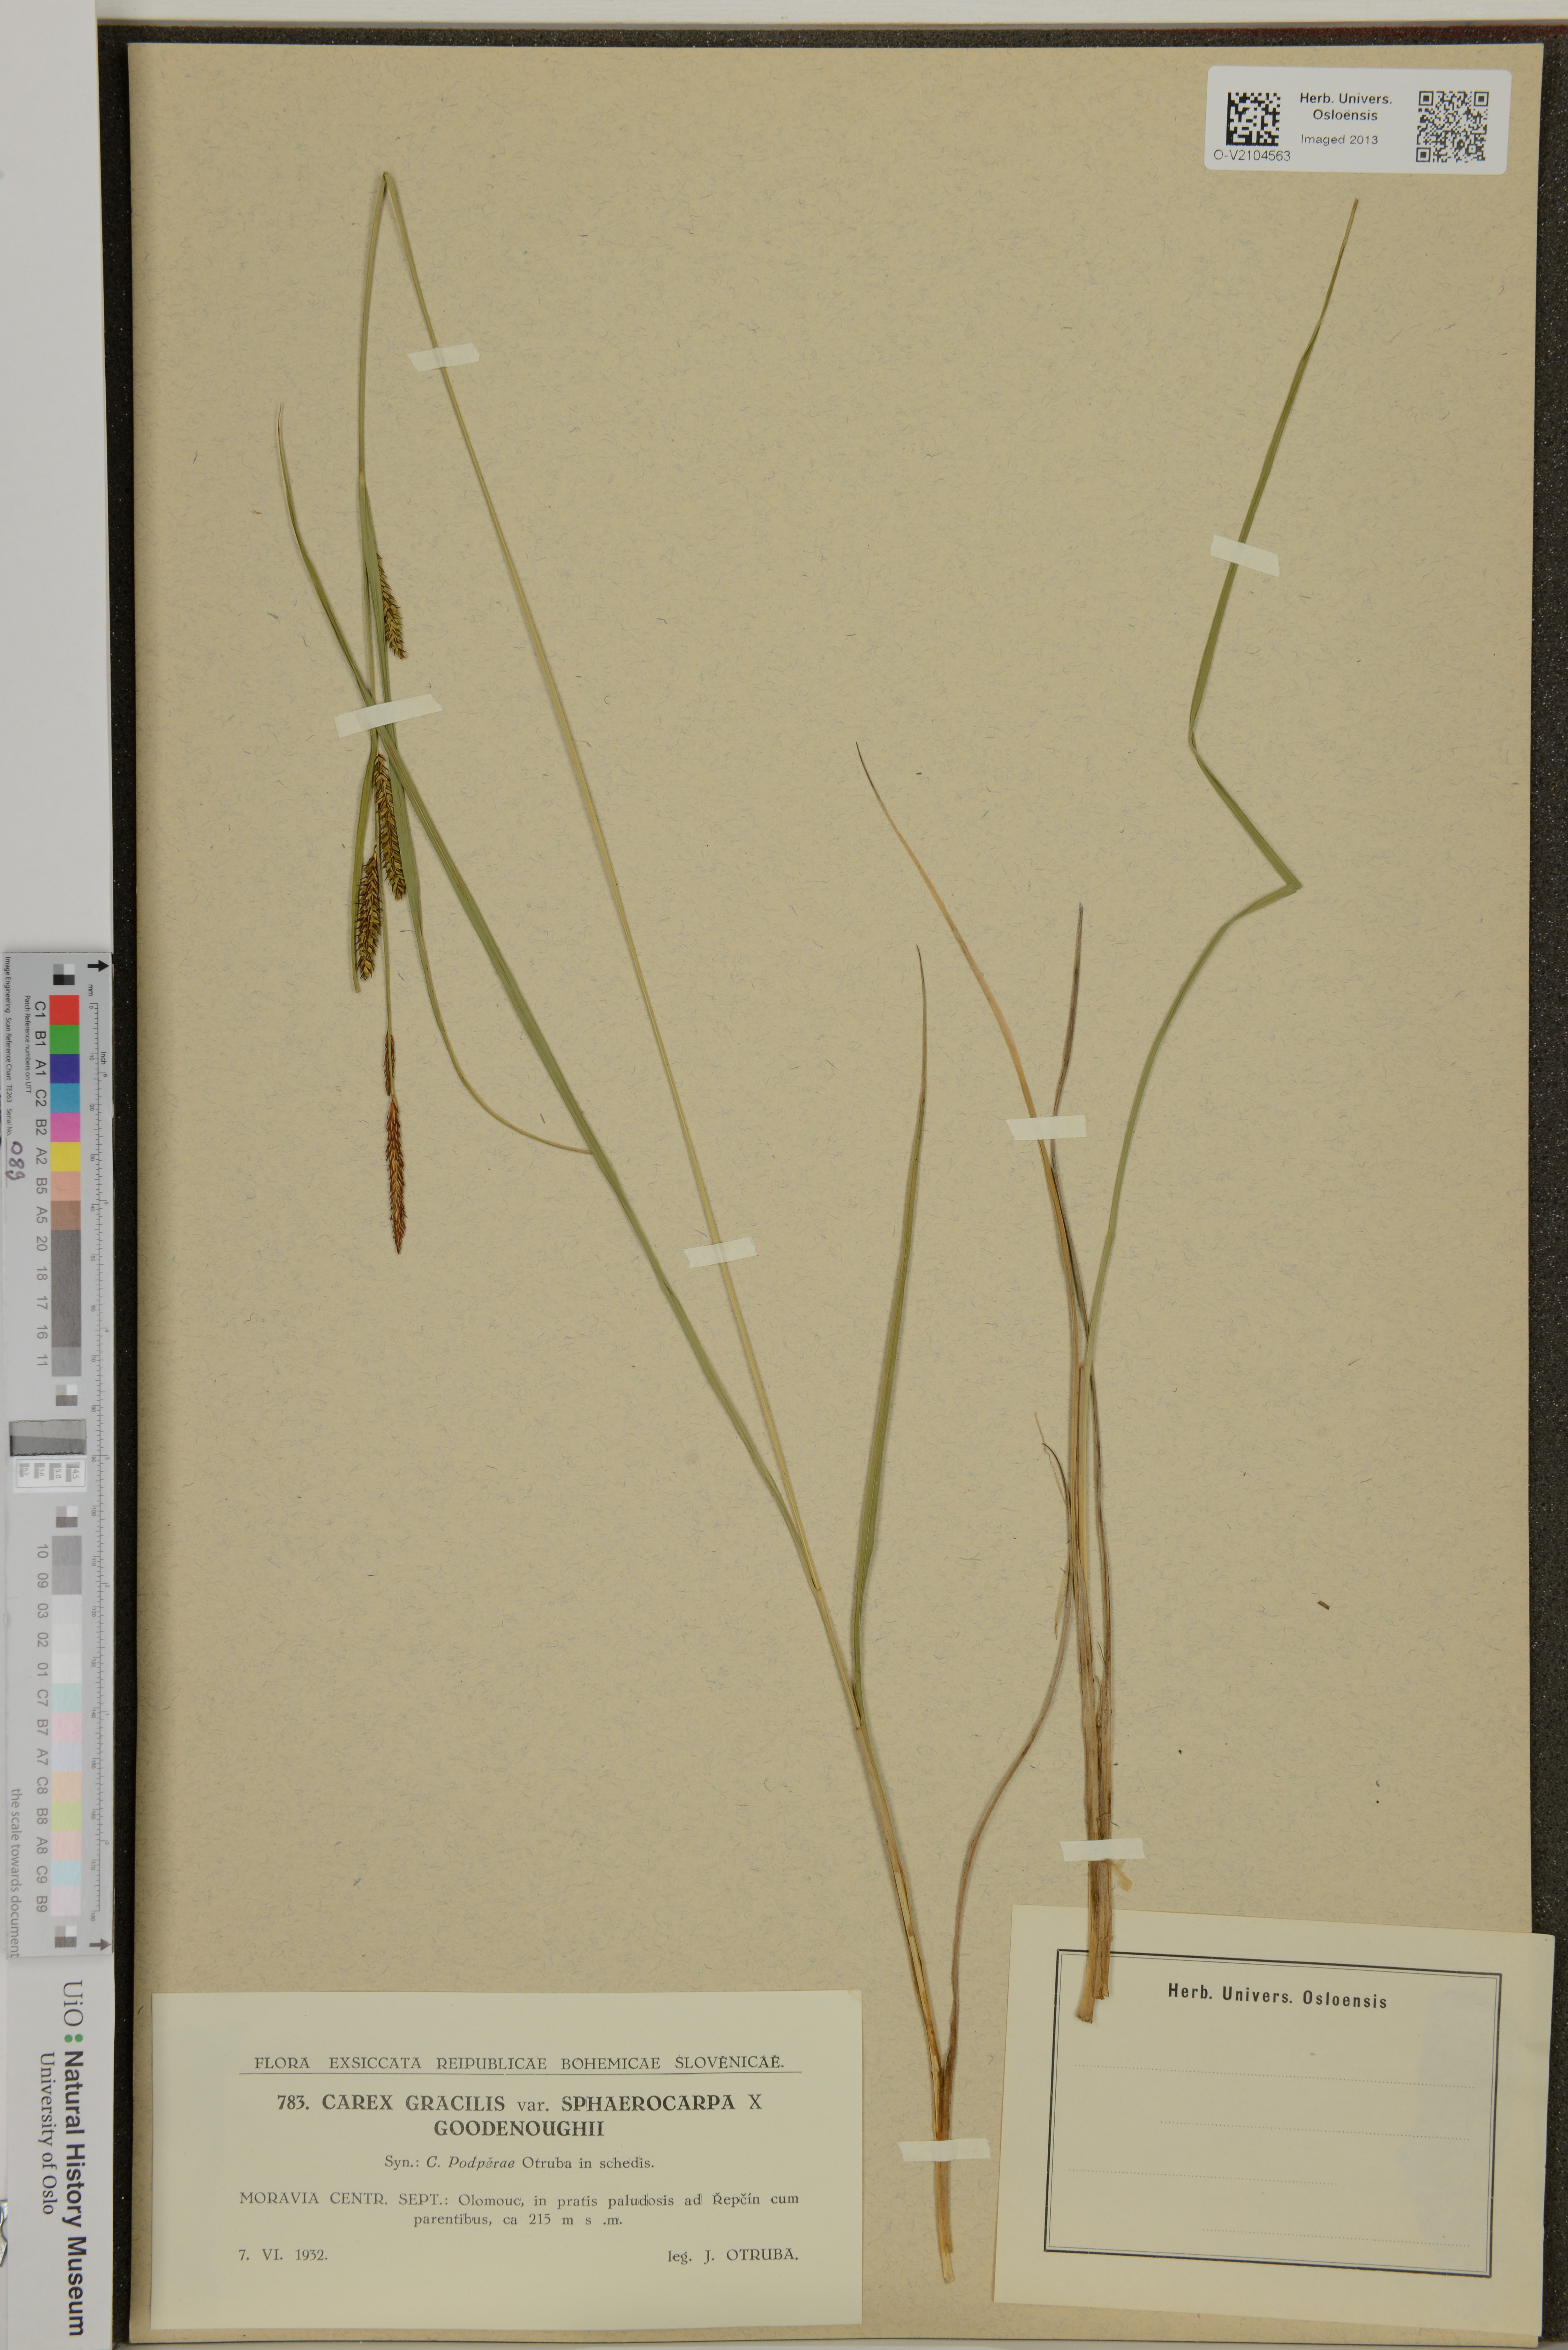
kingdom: Plantae
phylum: Tracheophyta
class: Liliopsida
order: Poales
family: Cyperaceae
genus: Carex
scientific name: Carex
